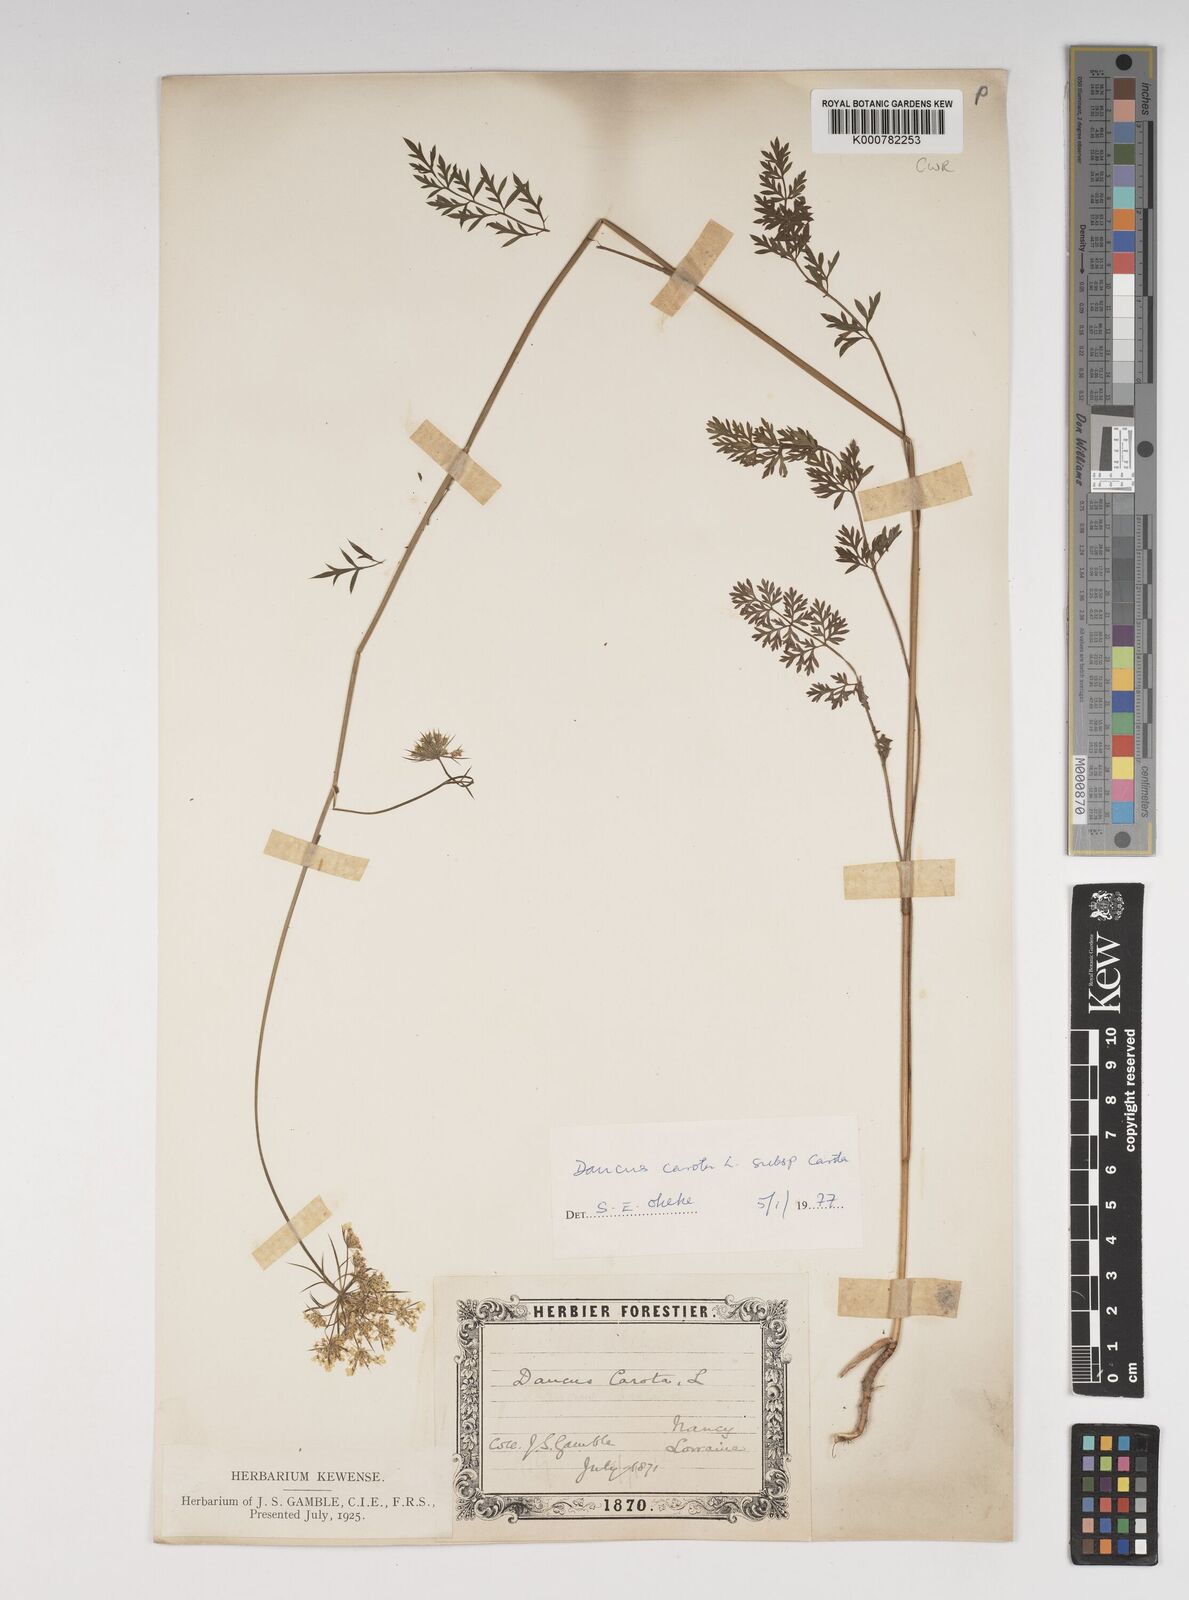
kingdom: Plantae
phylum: Tracheophyta
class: Magnoliopsida
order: Apiales
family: Apiaceae
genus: Daucus
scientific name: Daucus carota
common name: Wild carrot
